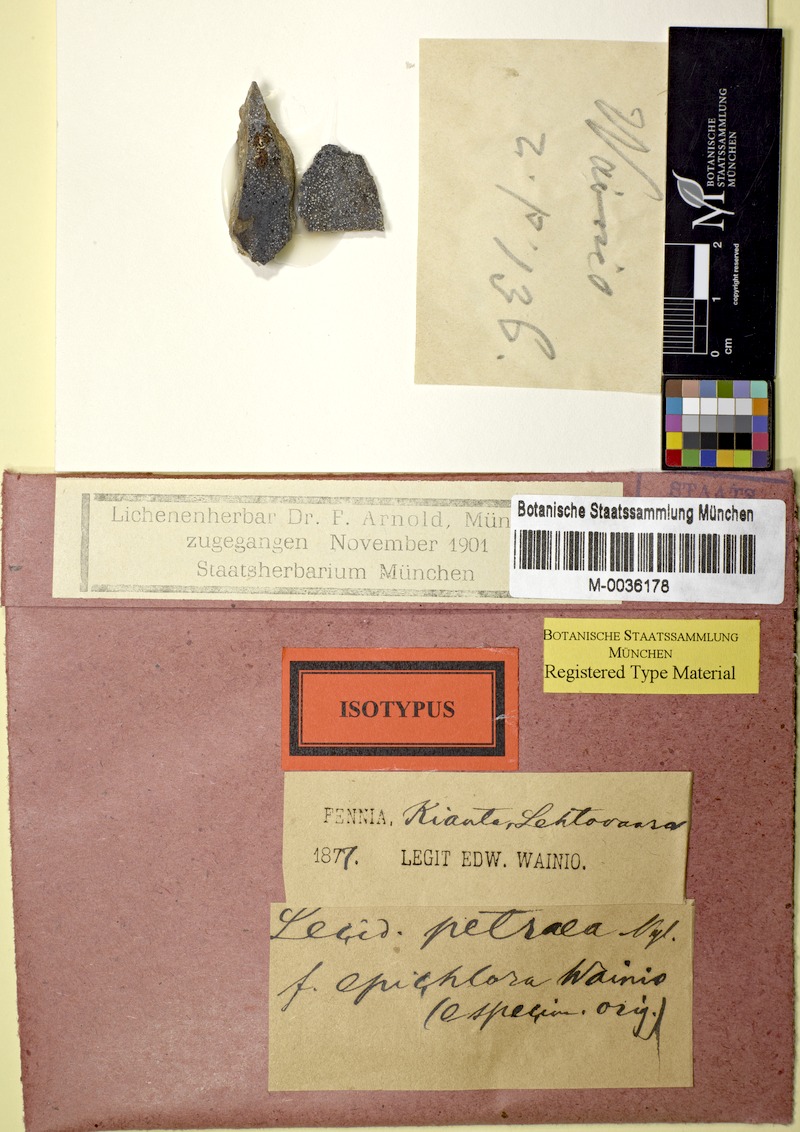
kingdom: Fungi
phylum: Ascomycota
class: Lecanoromycetes
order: Rhizocarpales
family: Rhizocarpaceae
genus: Rhizocarpon
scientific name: Rhizocarpon petraeum
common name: Rock-loving map lichen
